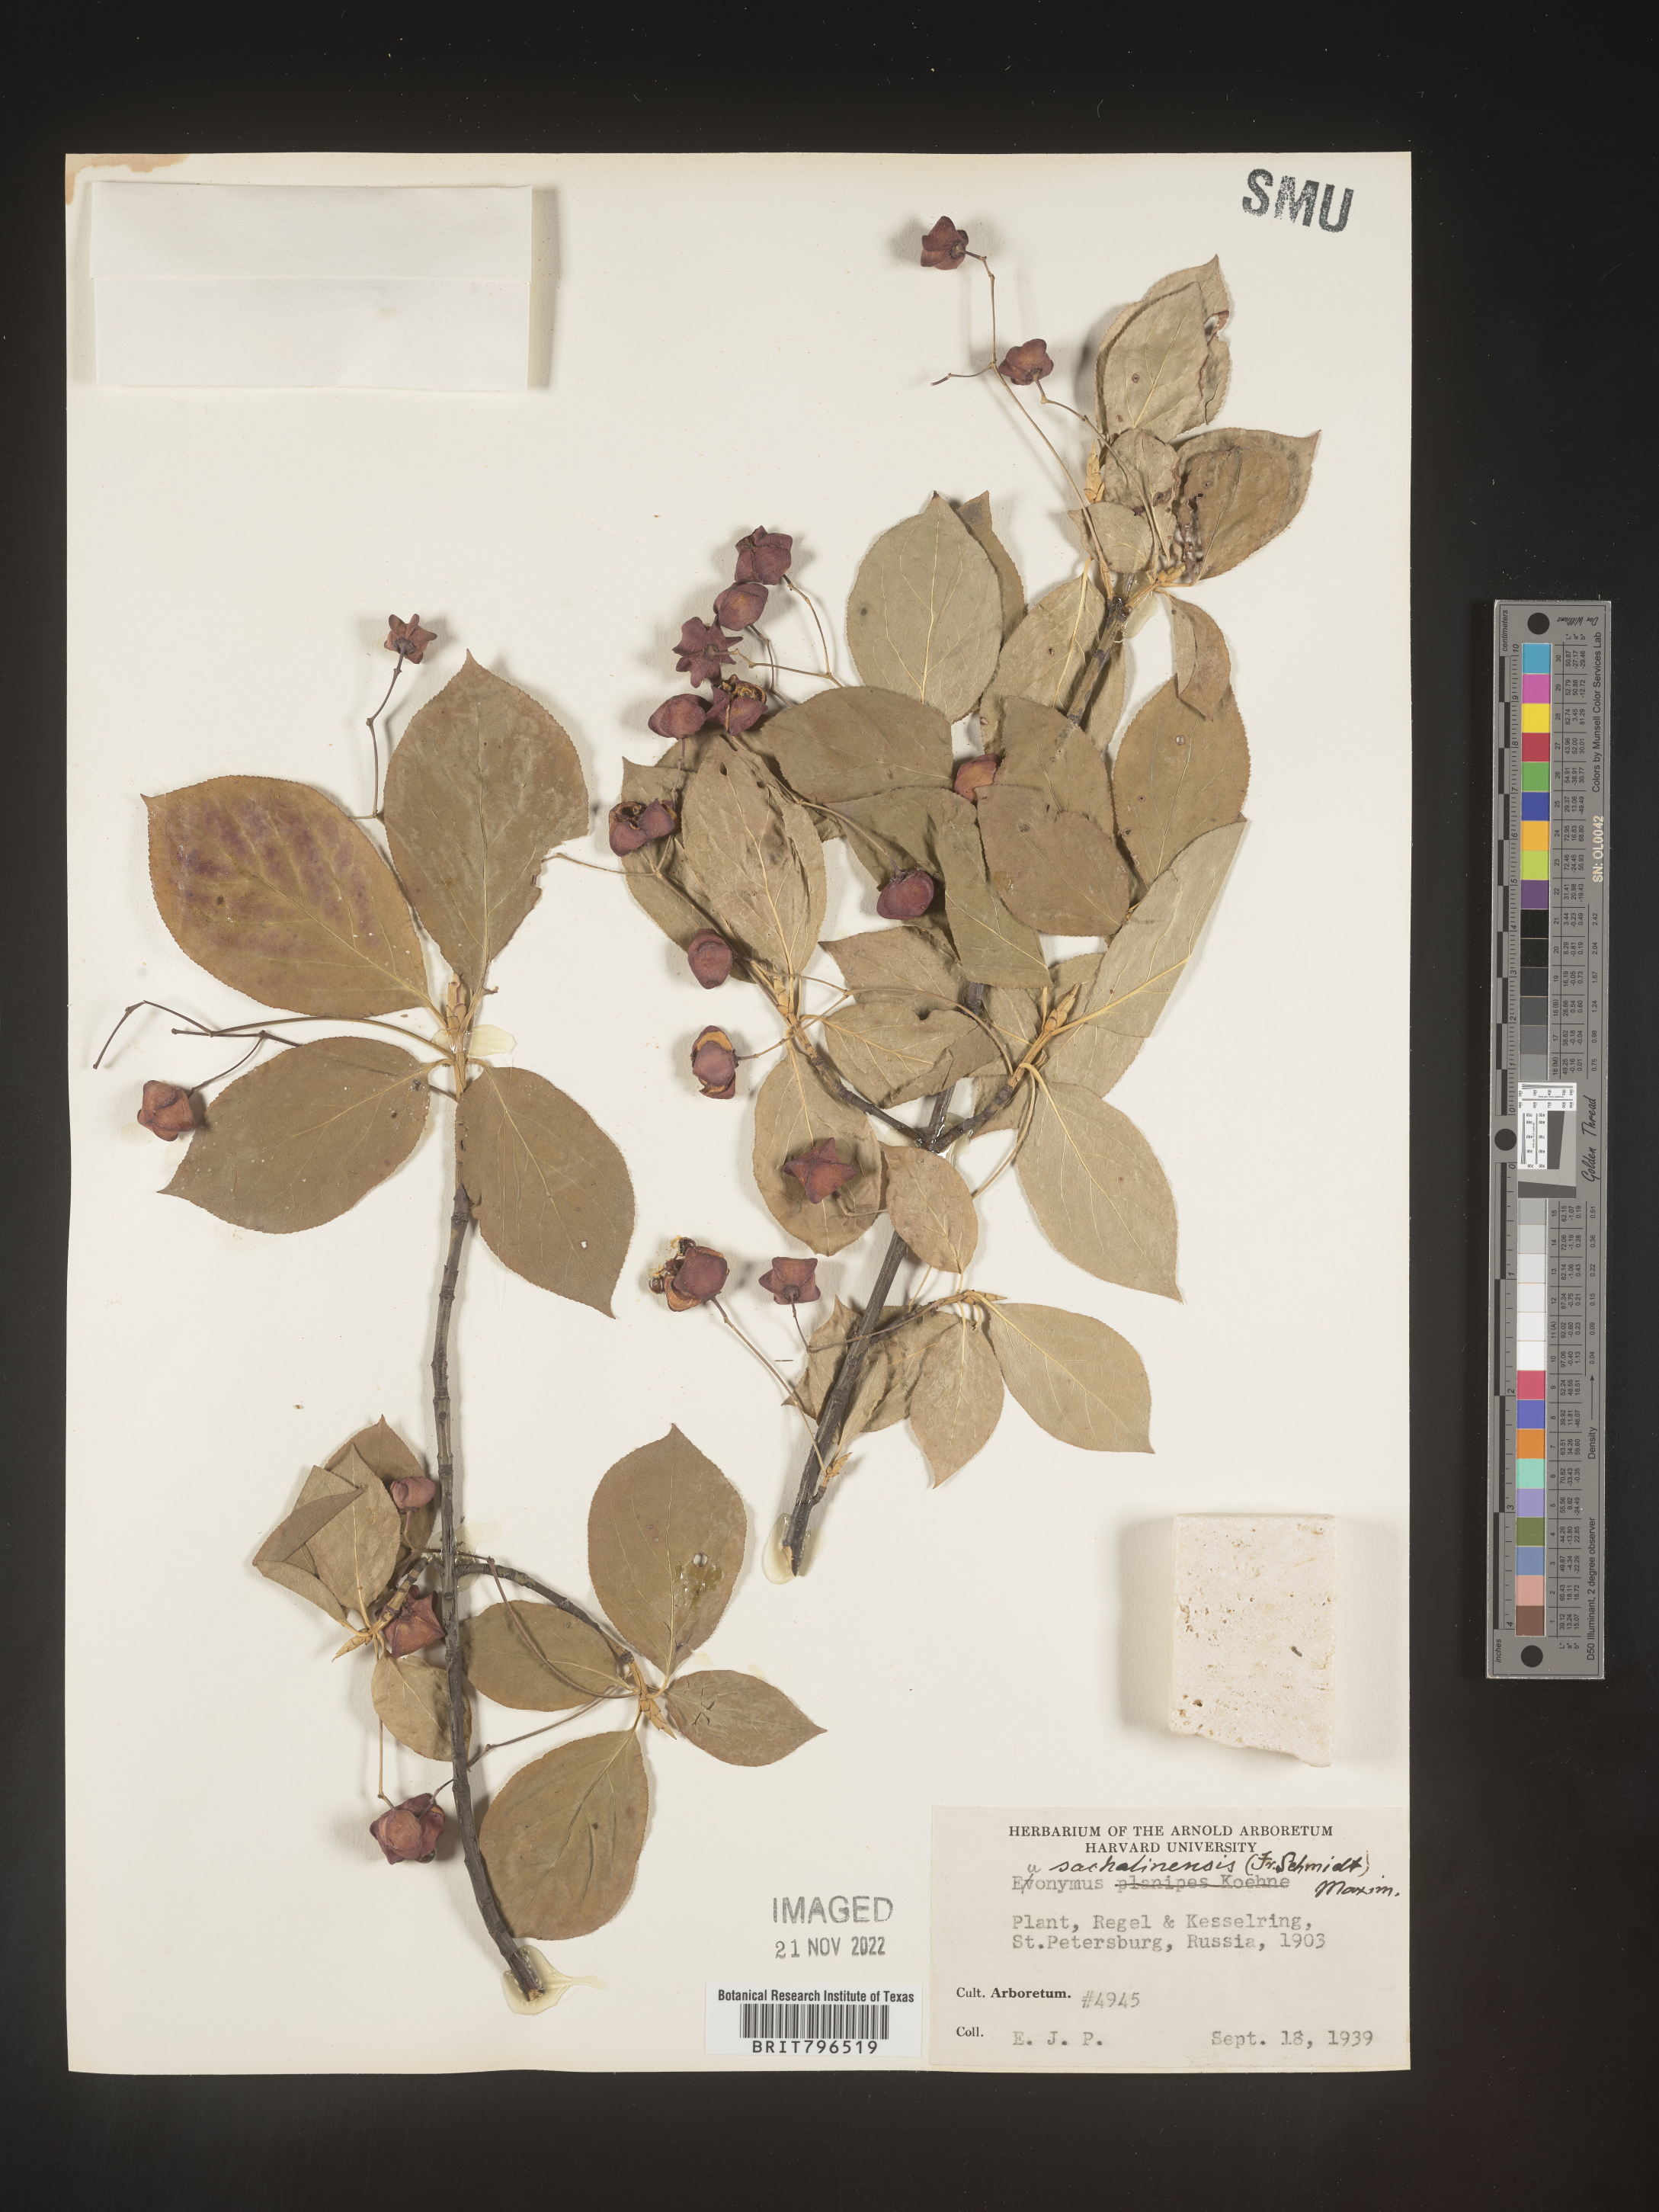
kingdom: Plantae
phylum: Tracheophyta
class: Magnoliopsida
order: Celastrales
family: Celastraceae
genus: Euonymus
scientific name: Euonymus
